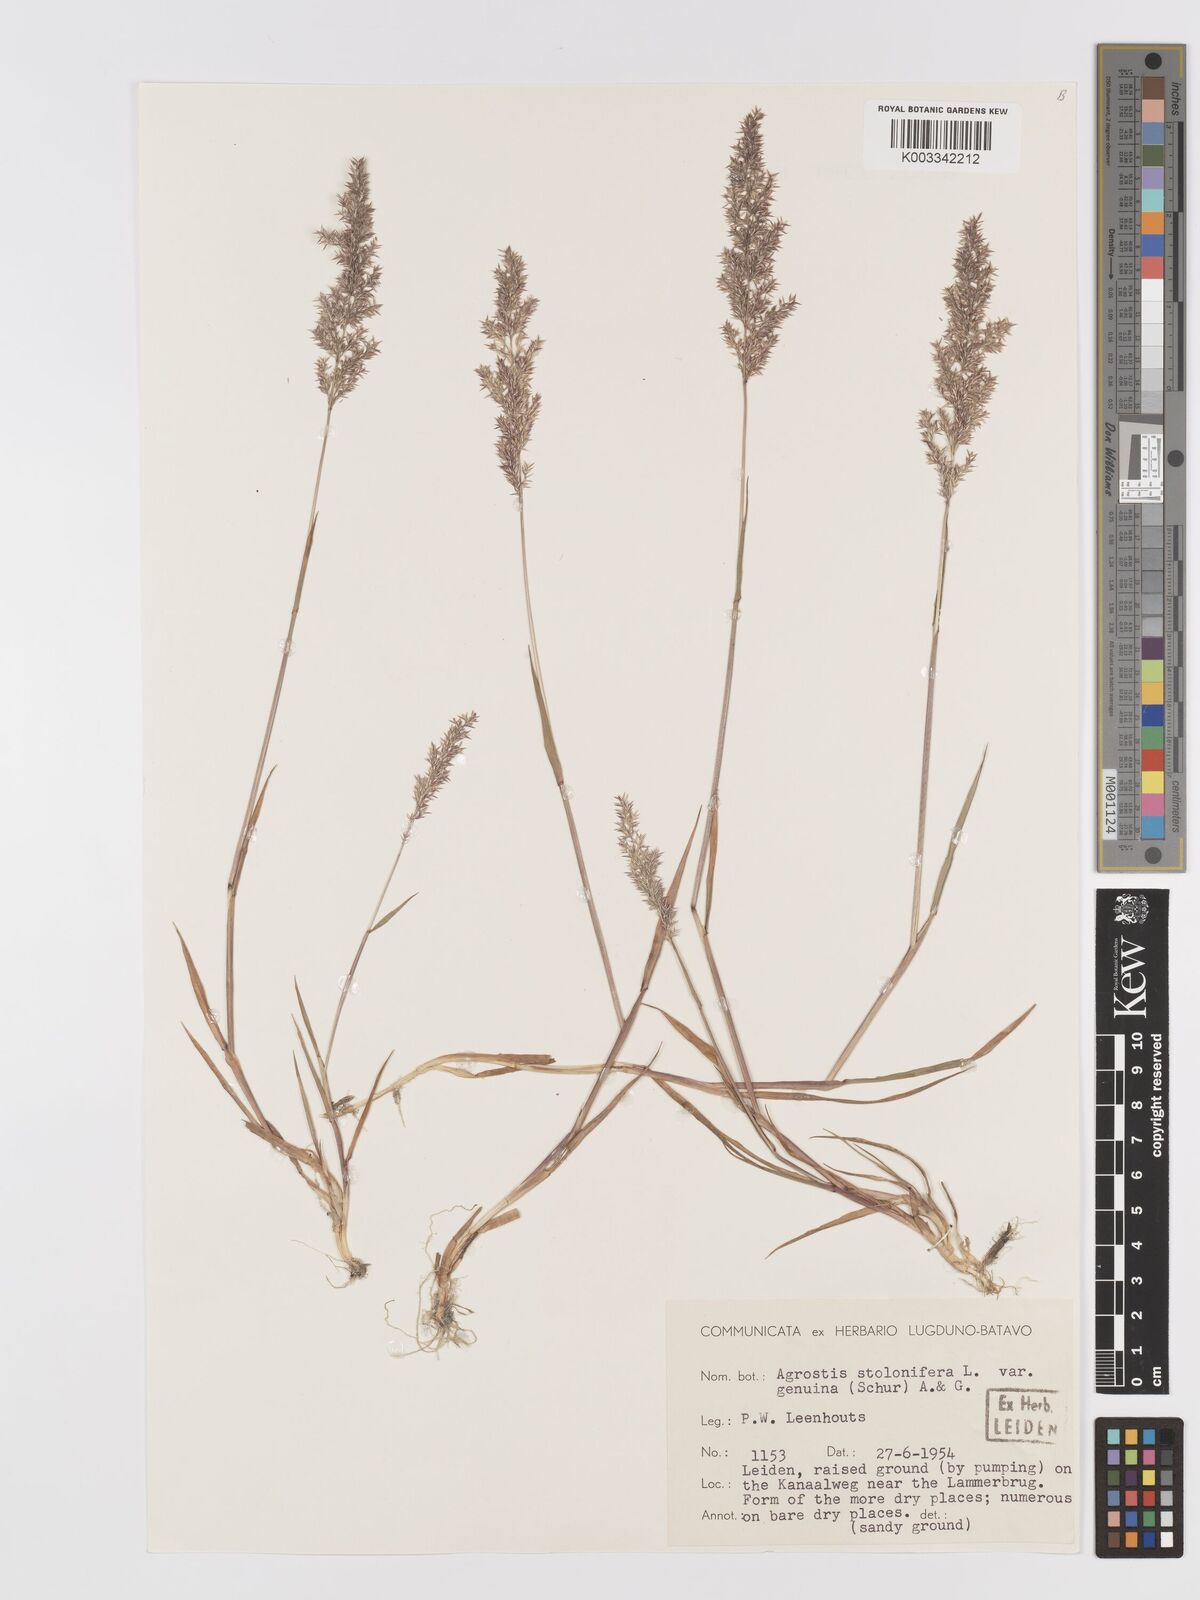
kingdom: Plantae
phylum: Tracheophyta
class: Liliopsida
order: Poales
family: Poaceae
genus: Agrostis
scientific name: Agrostis stolonifera
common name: Creeping bentgrass
